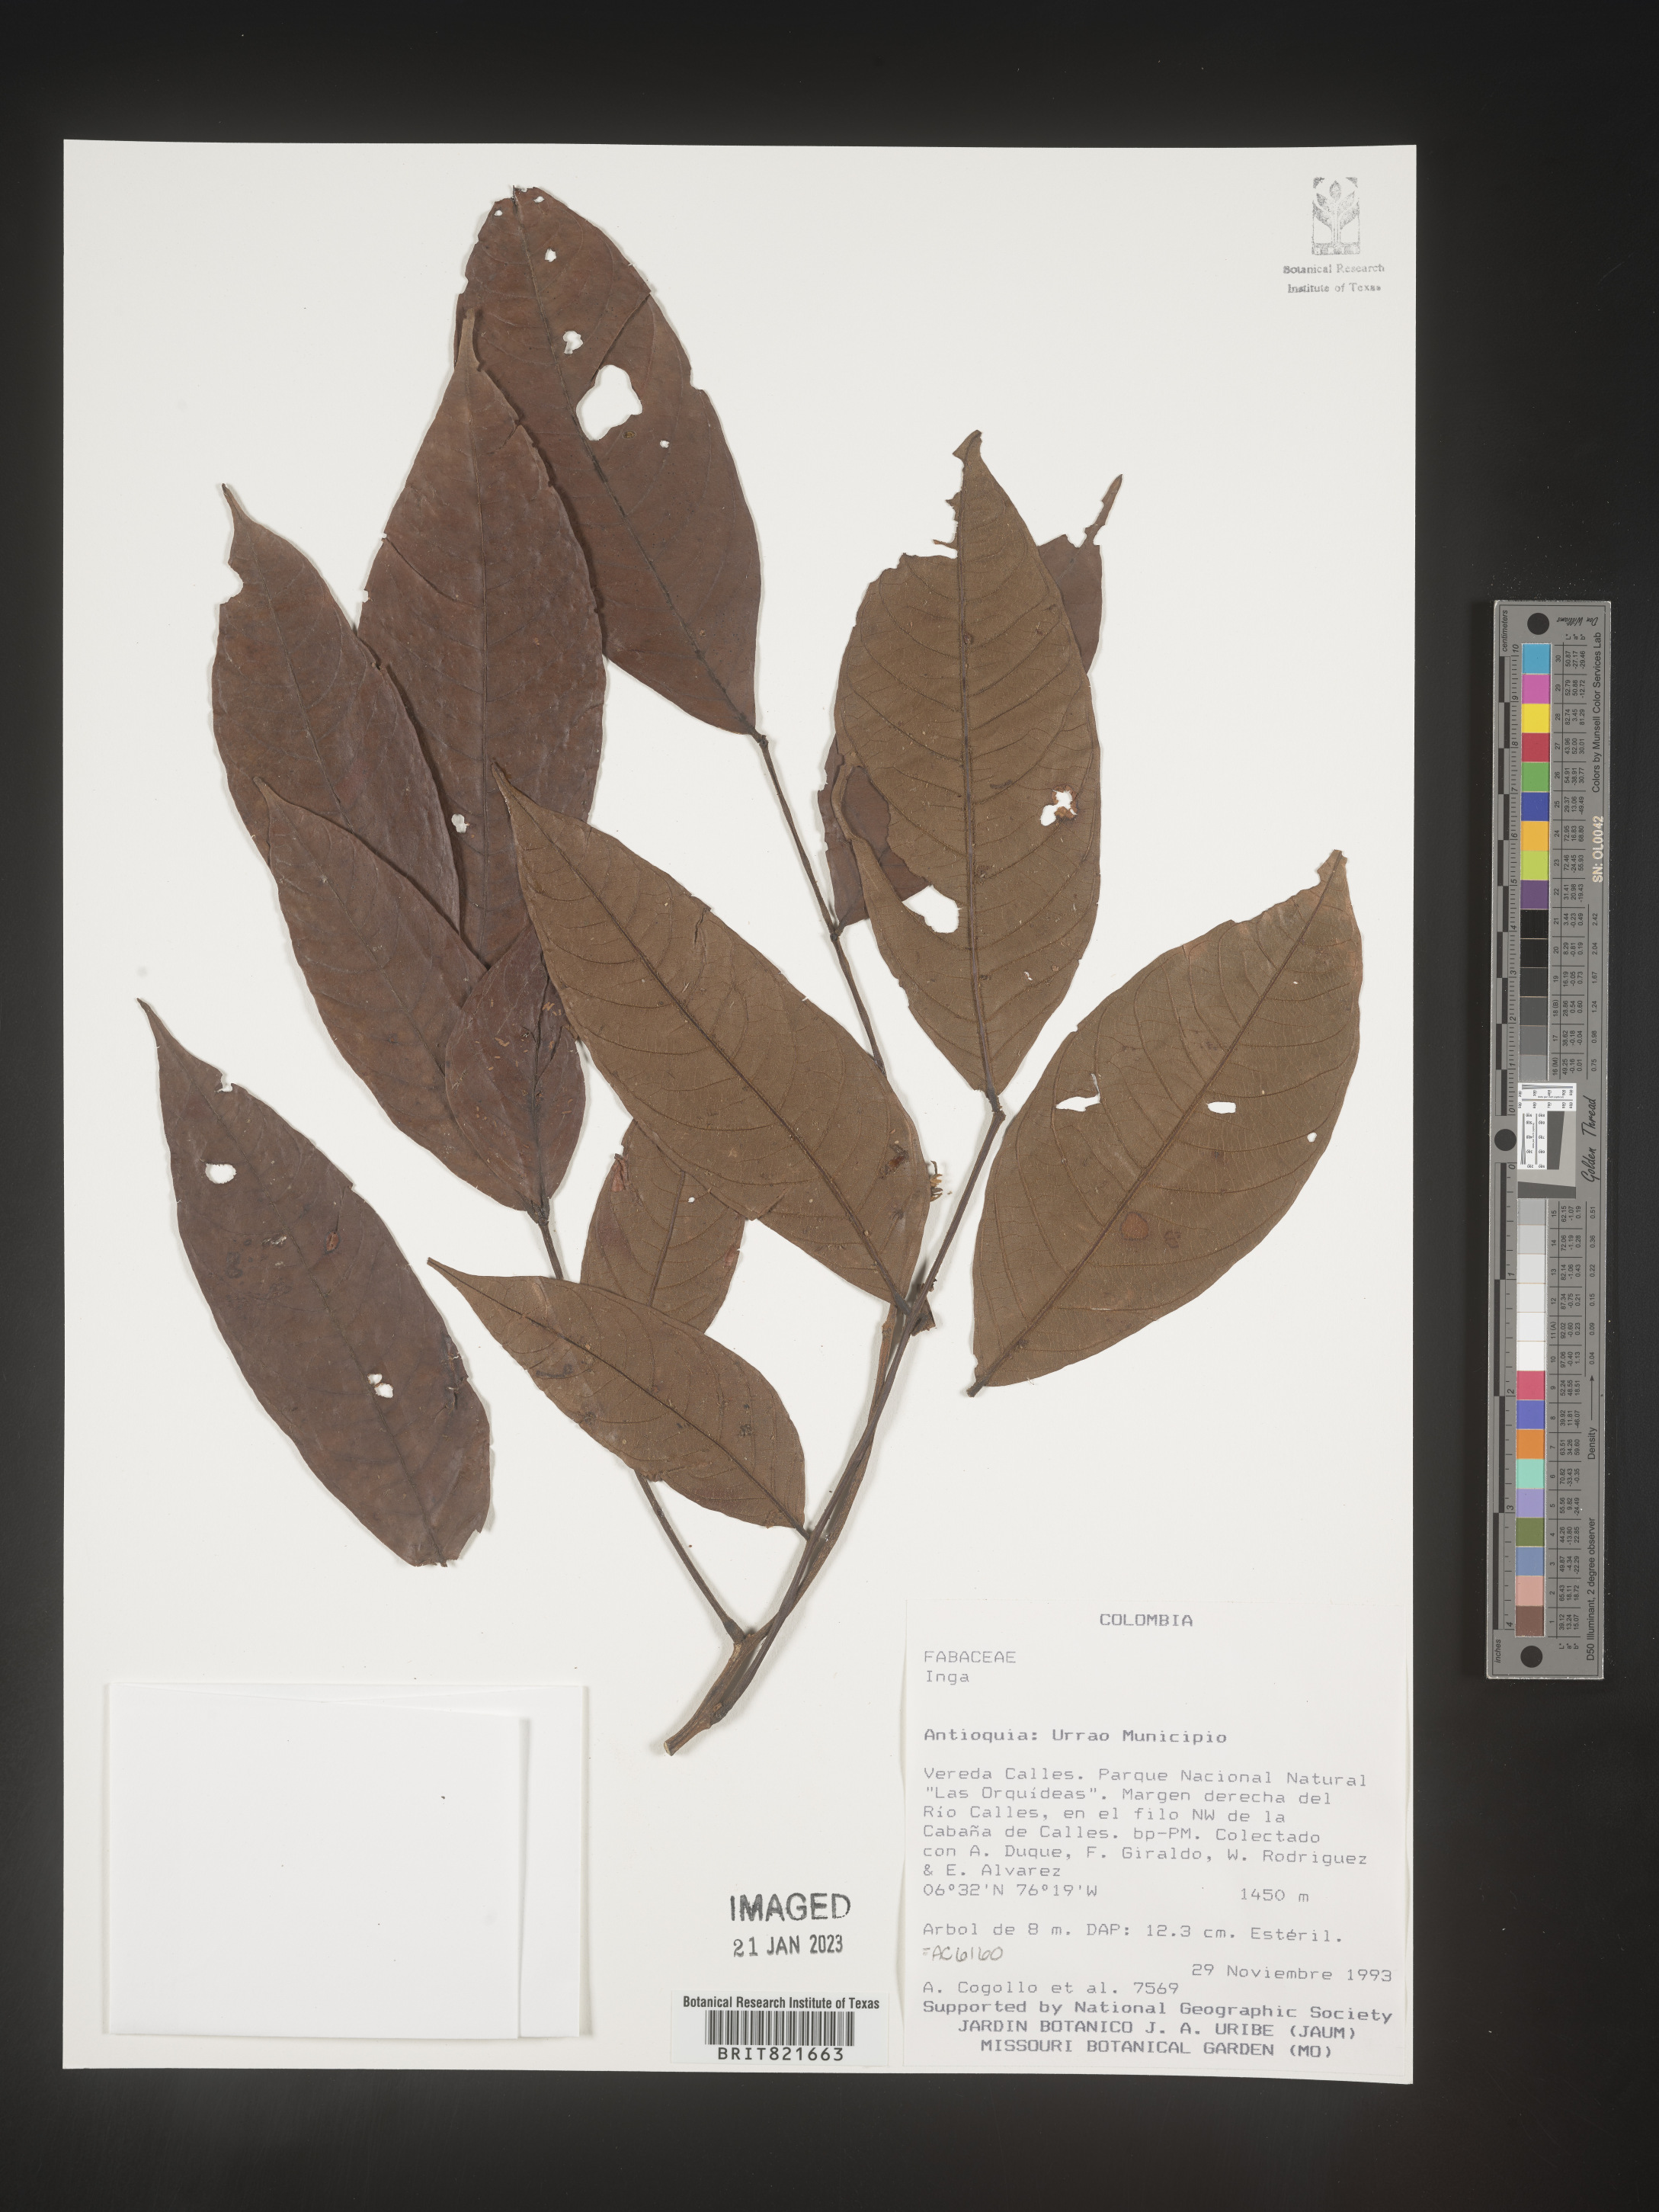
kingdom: Plantae
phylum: Tracheophyta
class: Magnoliopsida
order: Fabales
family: Fabaceae
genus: Inga
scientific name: Inga
